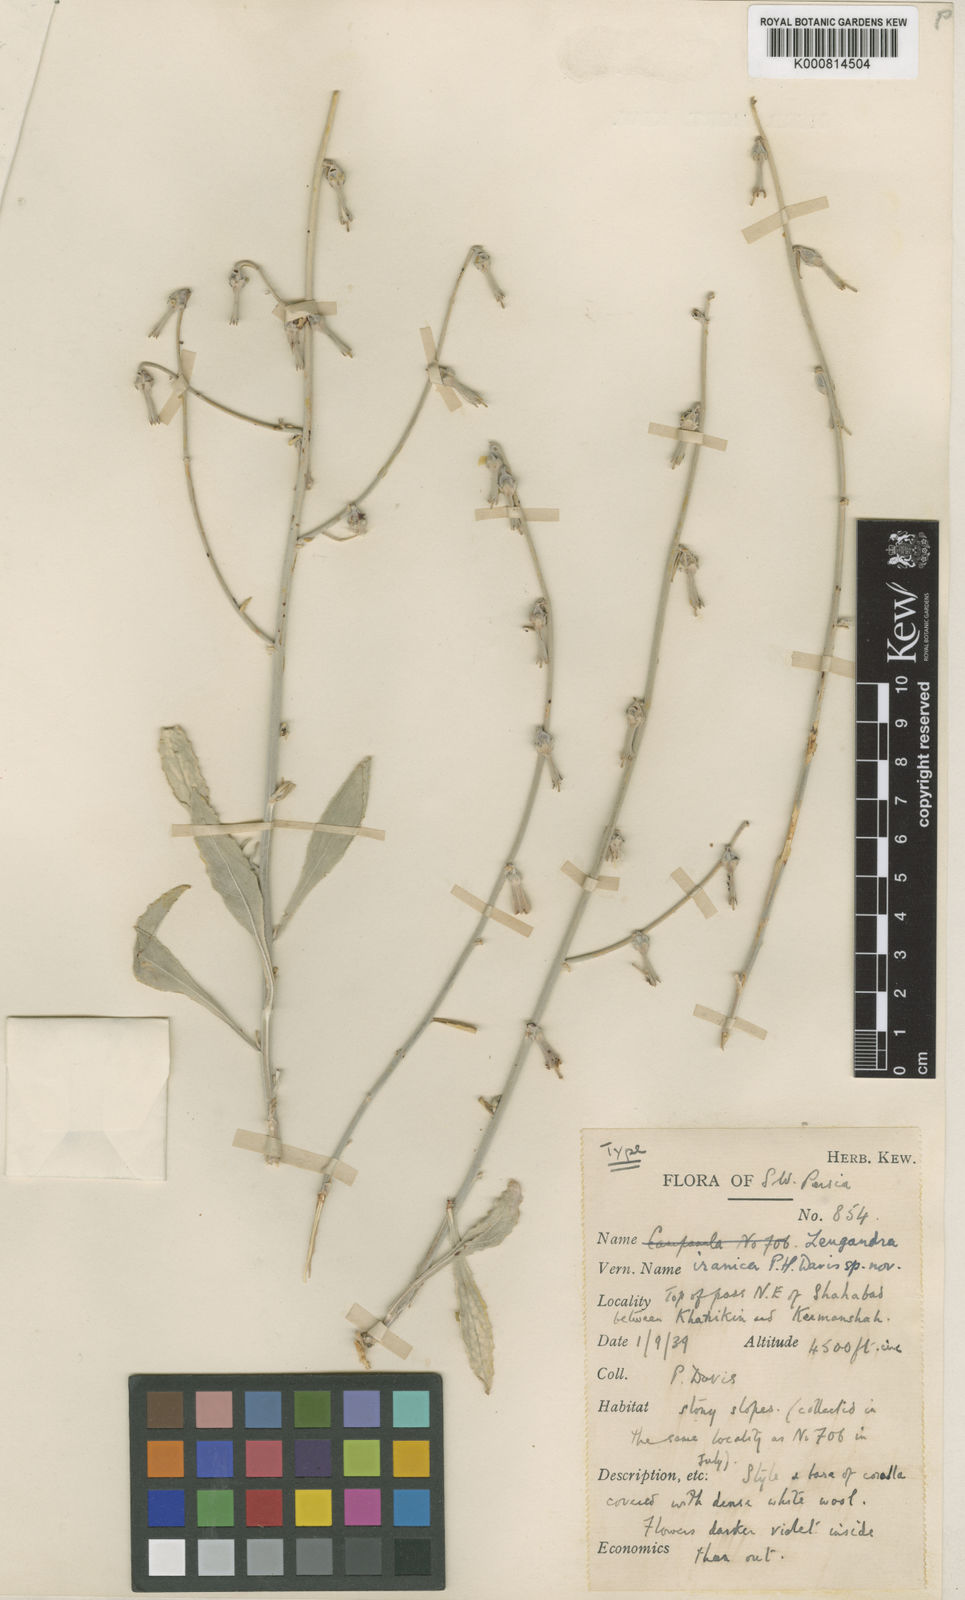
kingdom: Plantae
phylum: Tracheophyta
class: Magnoliopsida
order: Asterales
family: Campanulaceae
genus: Zeugandra
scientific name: Zeugandra iranica
